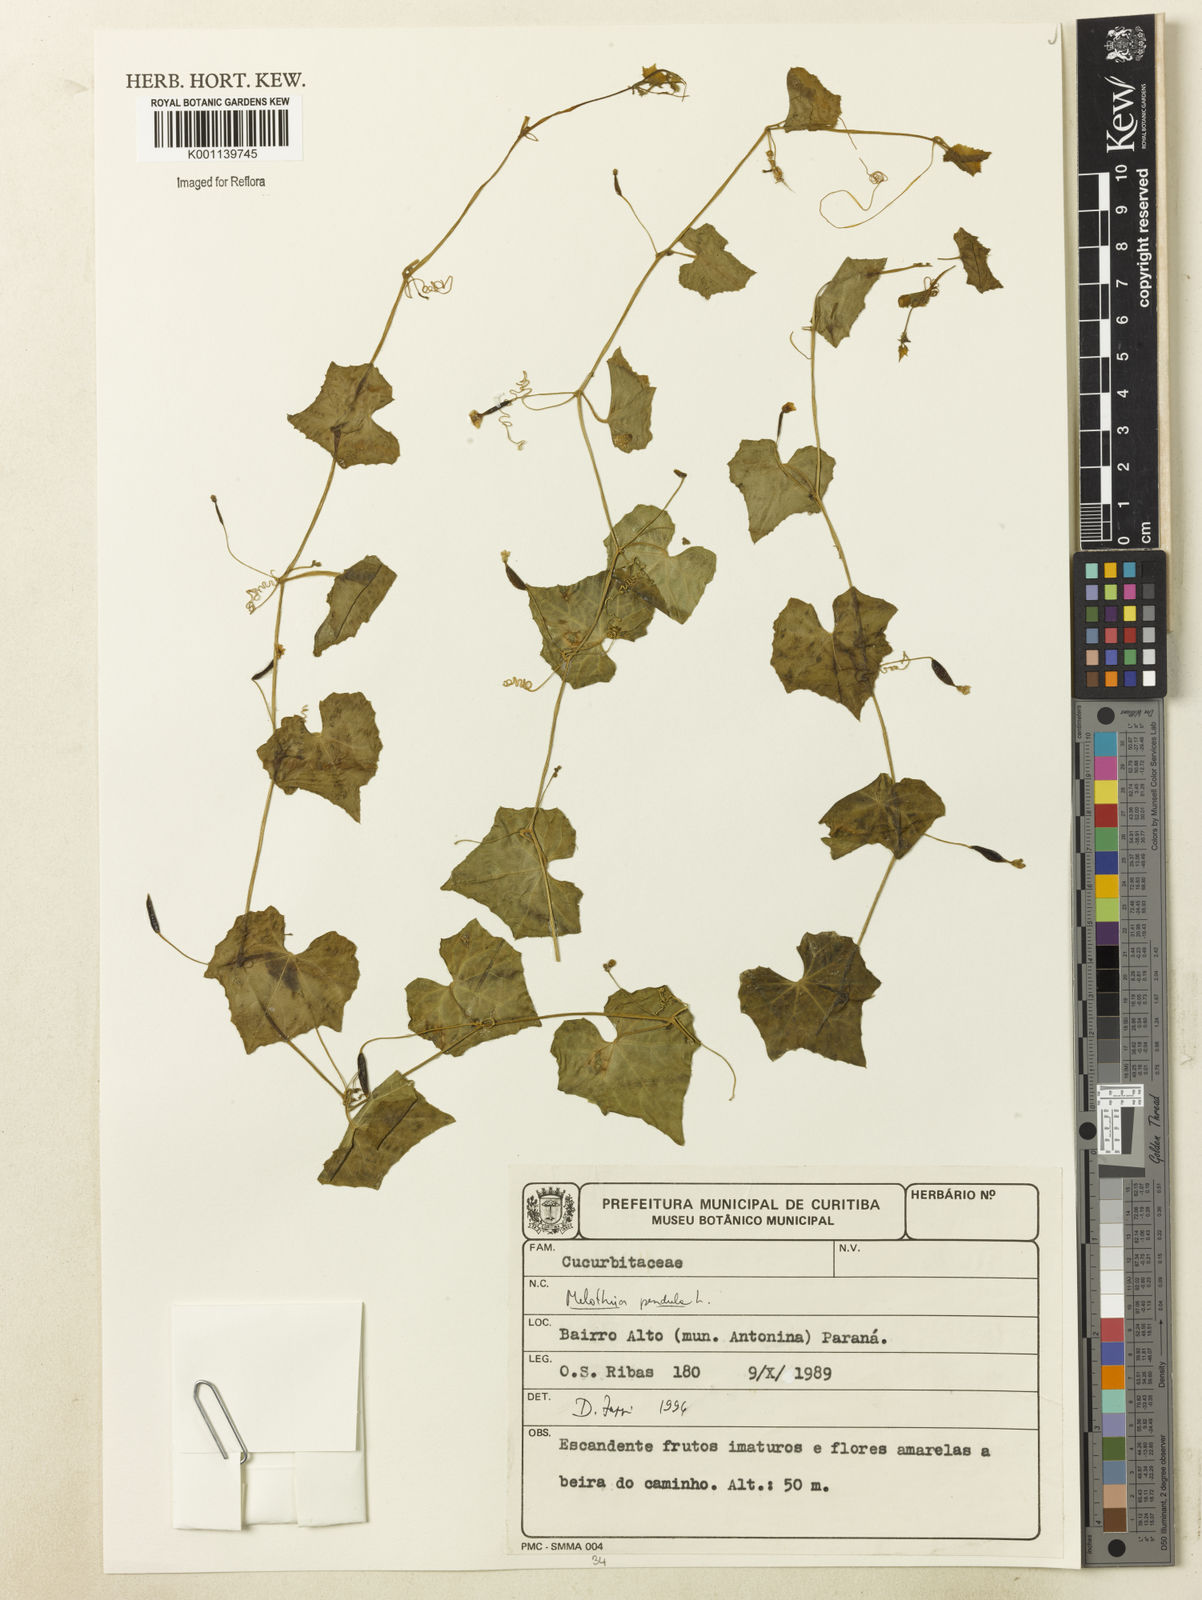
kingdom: Plantae
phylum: Tracheophyta
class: Magnoliopsida
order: Cucurbitales
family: Cucurbitaceae
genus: Melothria
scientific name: Melothria pendula
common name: Creeping-cucumber
